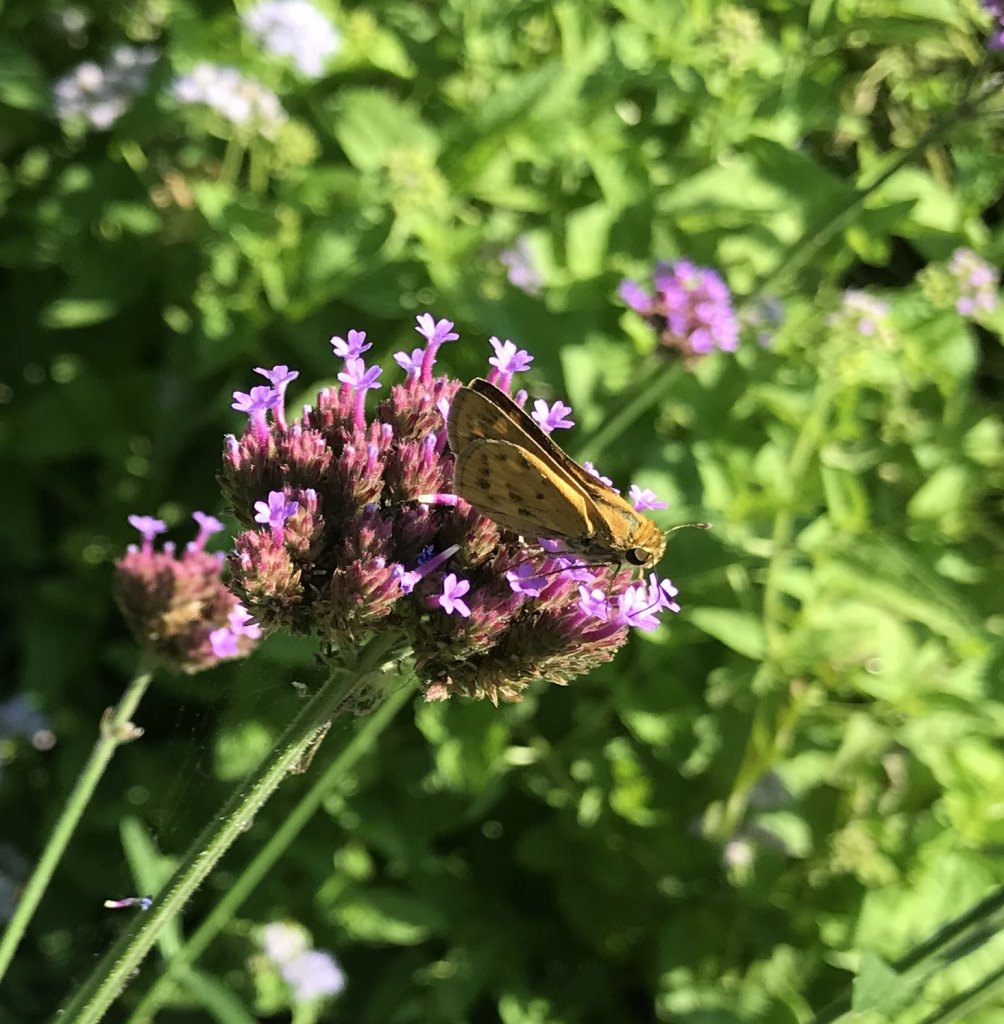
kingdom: Animalia
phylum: Arthropoda
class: Insecta
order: Lepidoptera
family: Hesperiidae
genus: Hylephila
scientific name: Hylephila phyleus
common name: Fiery Skipper
